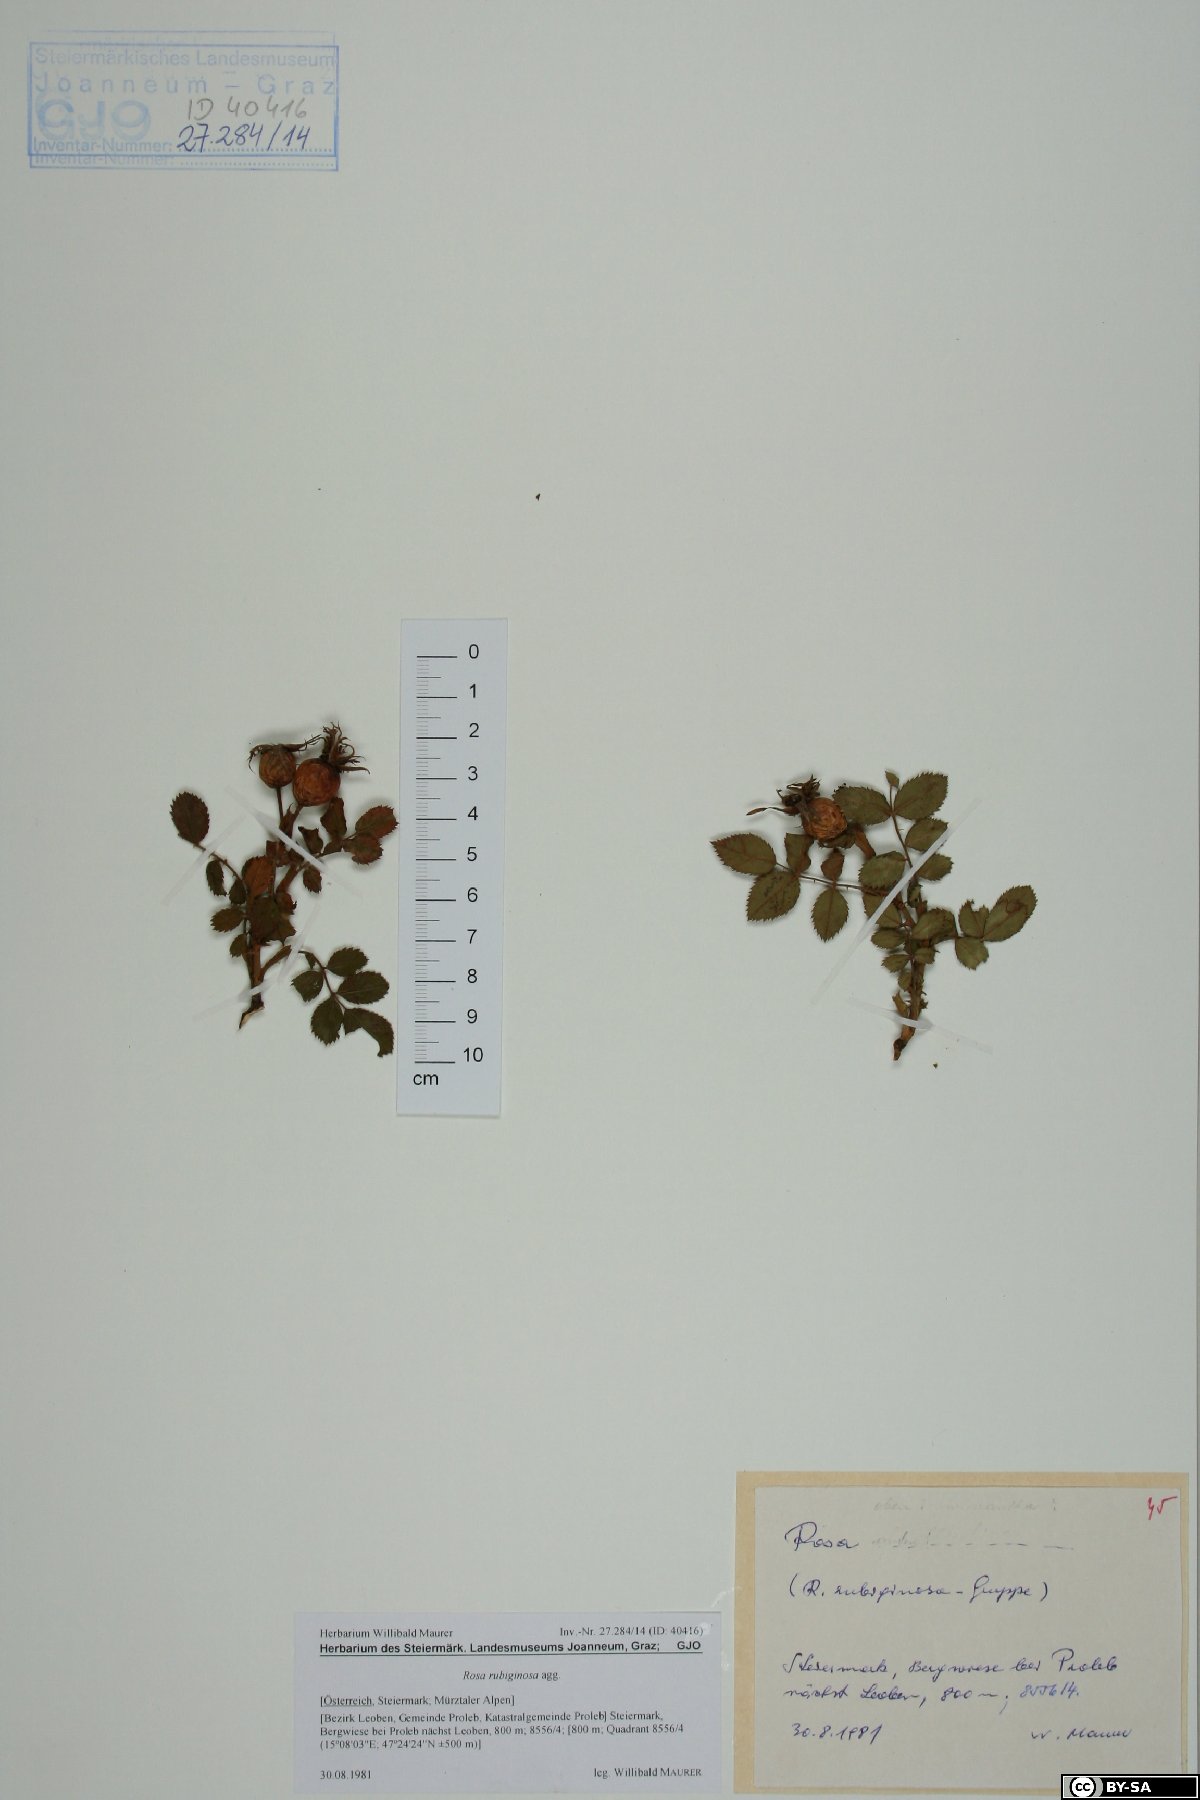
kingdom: Plantae
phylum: Tracheophyta
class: Magnoliopsida
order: Rosales
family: Rosaceae
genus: Rosa
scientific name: Rosa rubiginosa
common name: Sweet-briar
